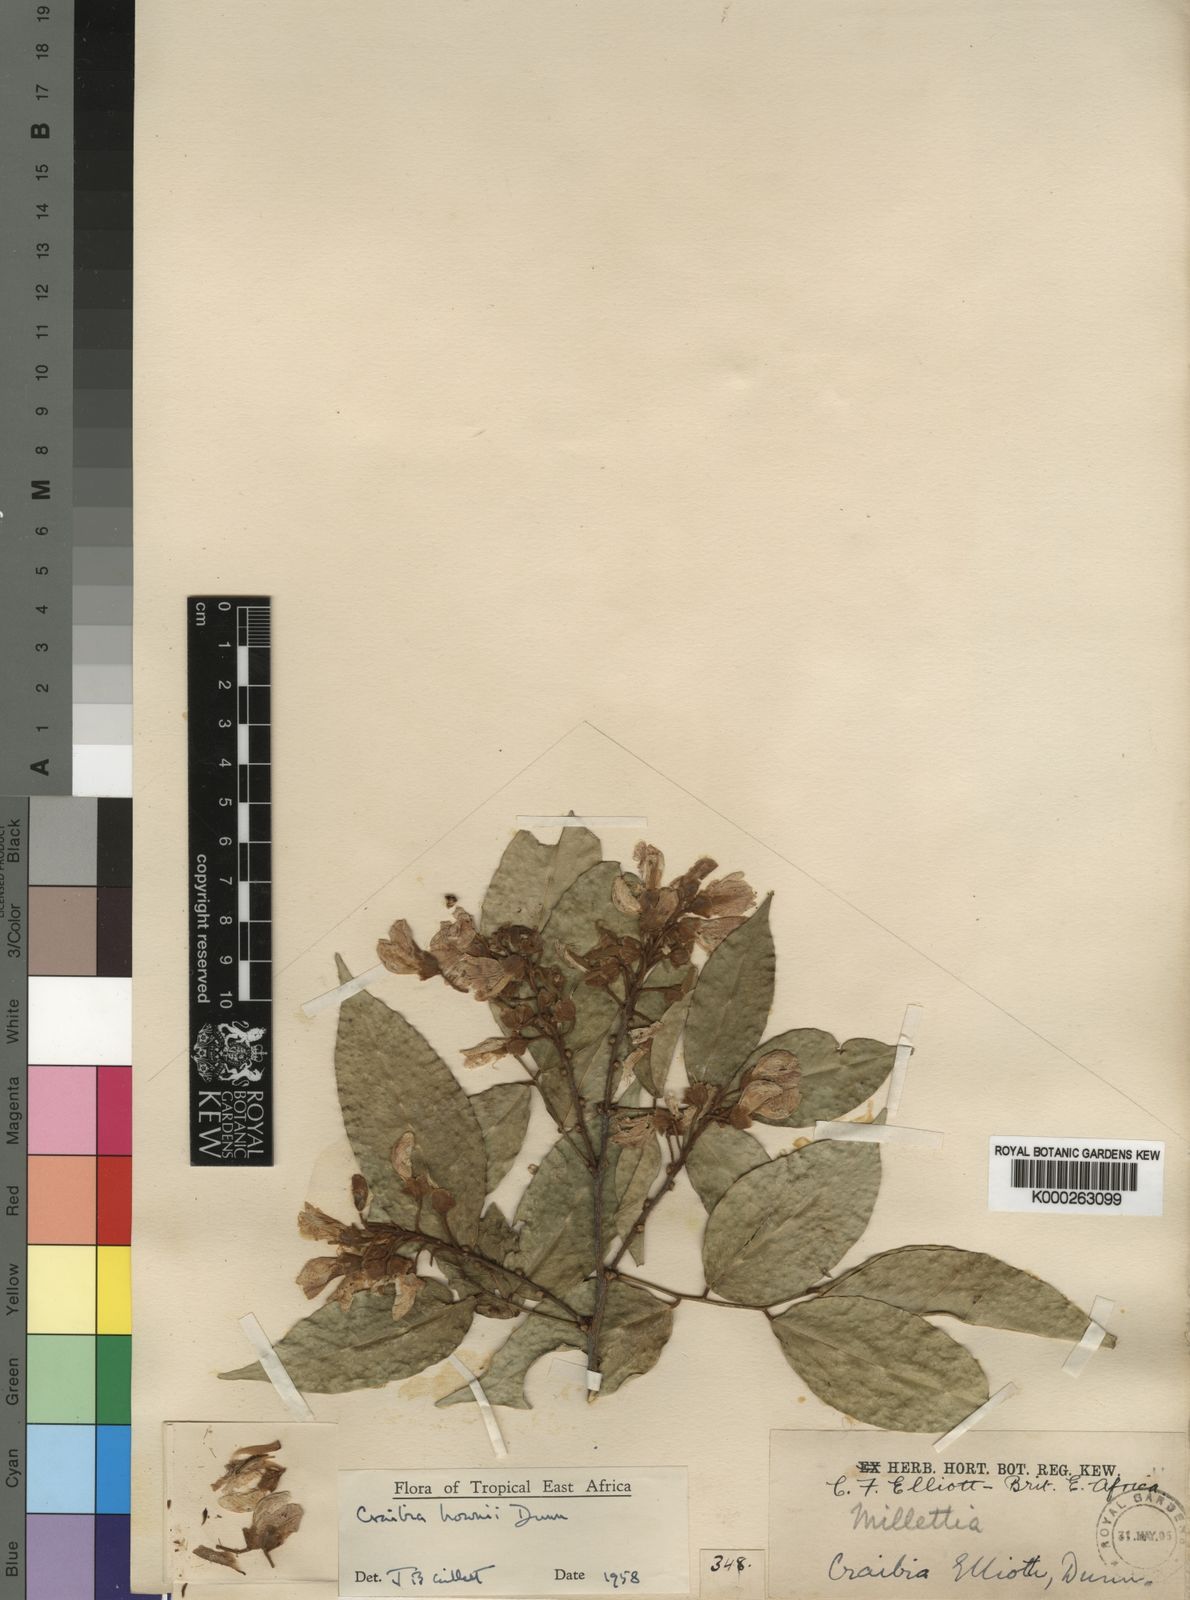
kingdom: Plantae
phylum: Tracheophyta
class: Magnoliopsida
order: Fabales
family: Fabaceae
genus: Craibia
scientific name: Craibia brownii
